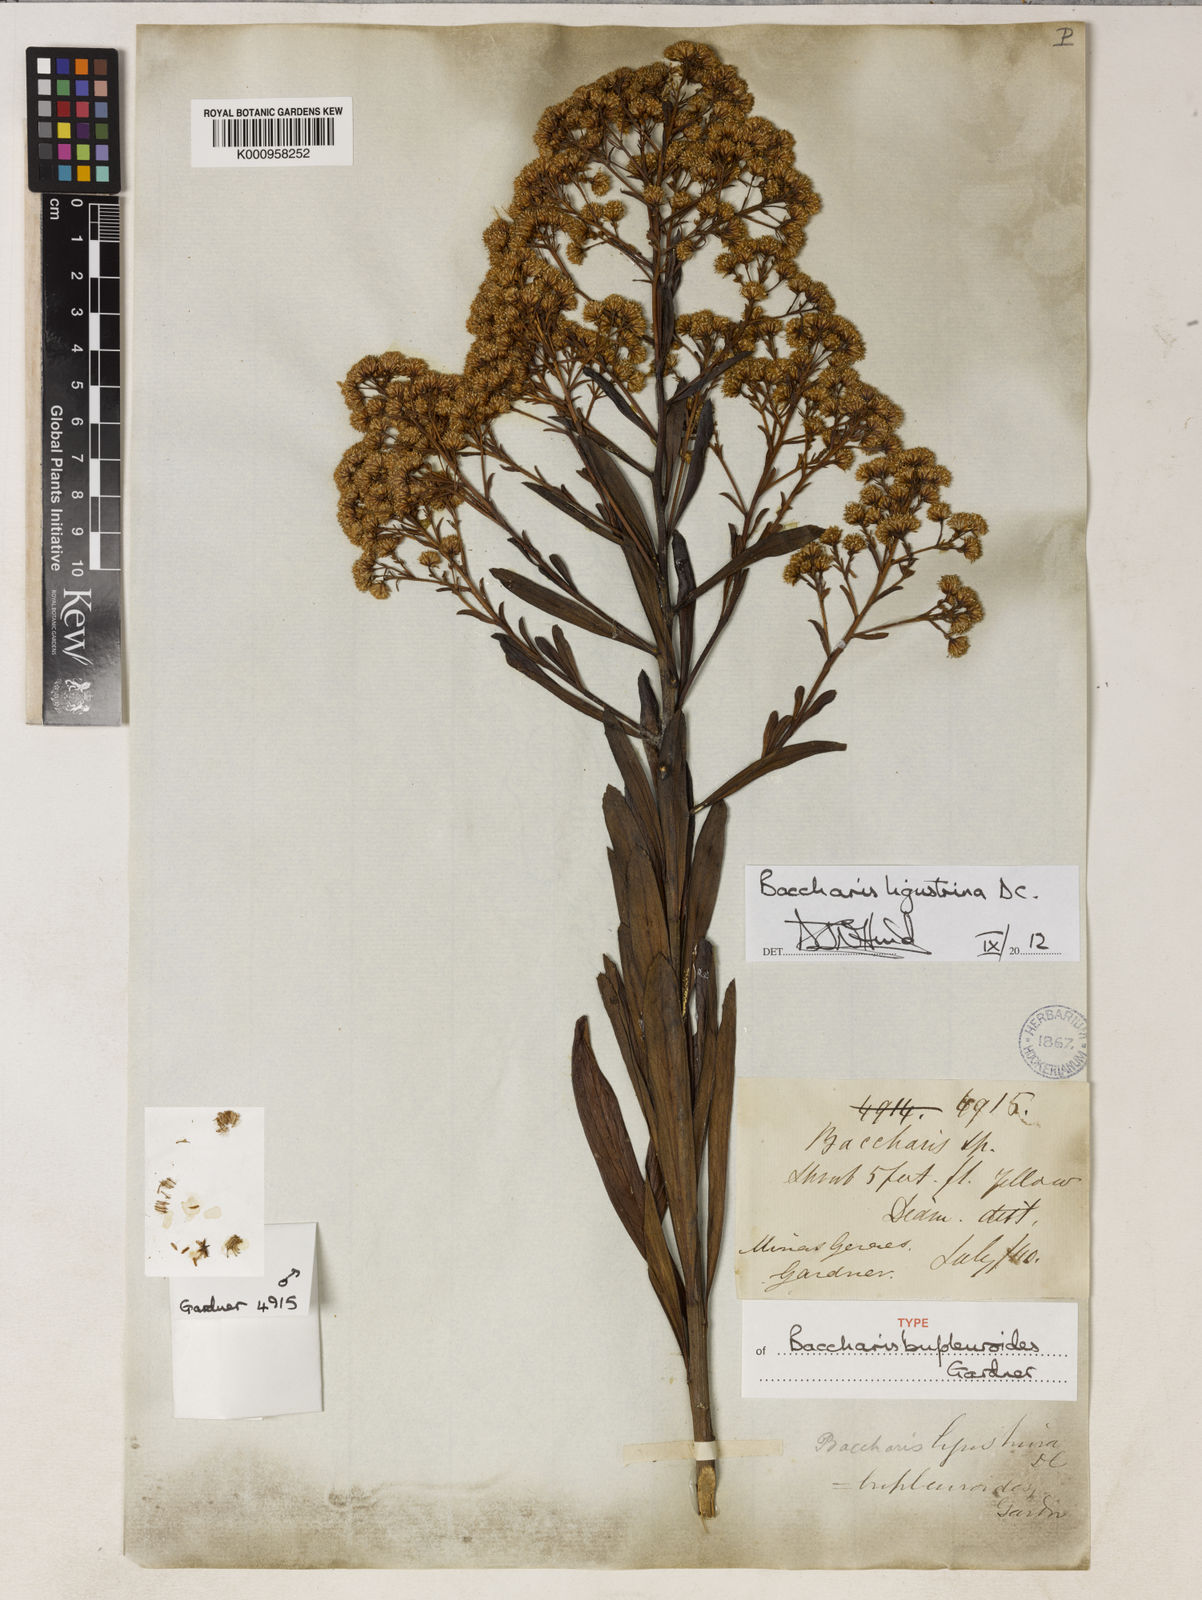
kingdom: Plantae
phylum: Tracheophyta
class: Magnoliopsida
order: Asterales
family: Asteraceae
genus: Baccharis
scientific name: Baccharis ligustrina
